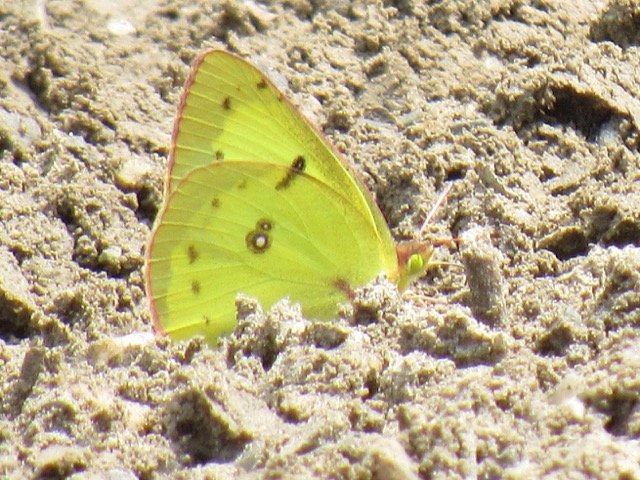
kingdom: Animalia
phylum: Arthropoda
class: Insecta
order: Lepidoptera
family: Pieridae
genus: Colias
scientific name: Colias philodice
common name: Clouded Sulphur
